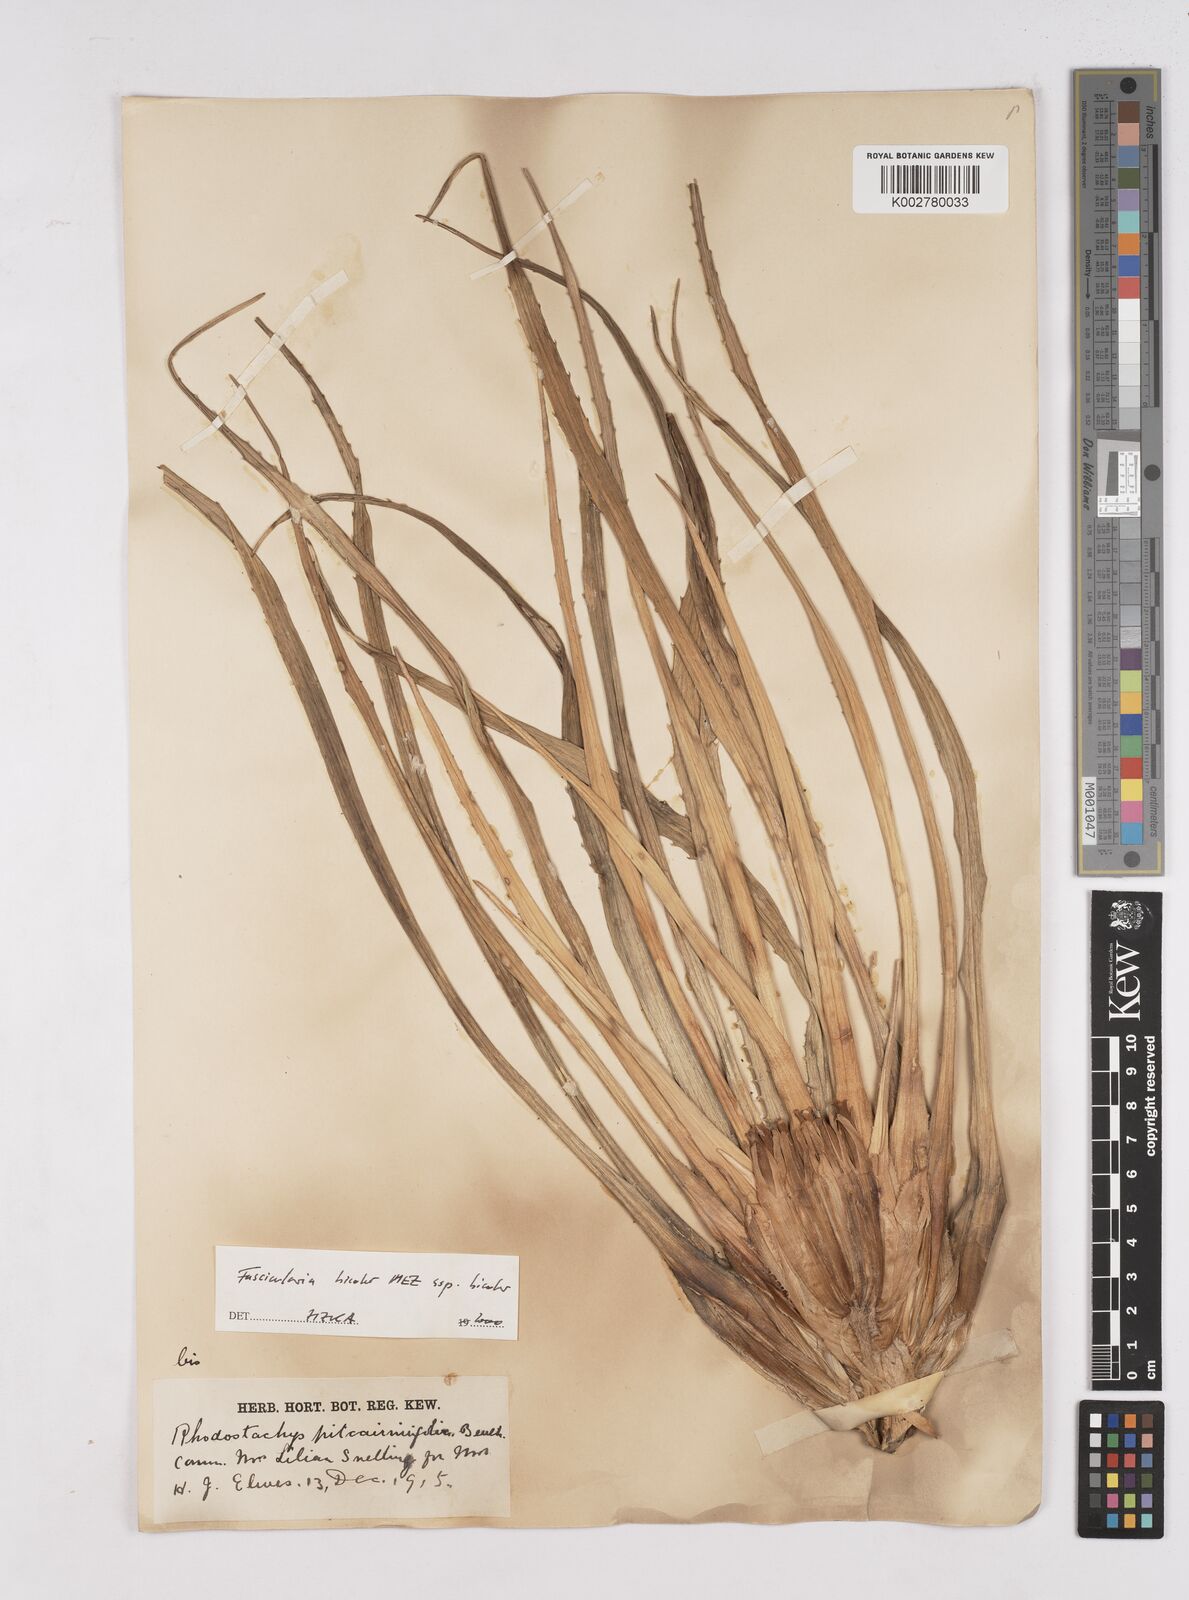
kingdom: Plantae
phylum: Tracheophyta
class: Liliopsida
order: Poales
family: Bromeliaceae
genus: Hechtia
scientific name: Hechtia pitcairniifolia
